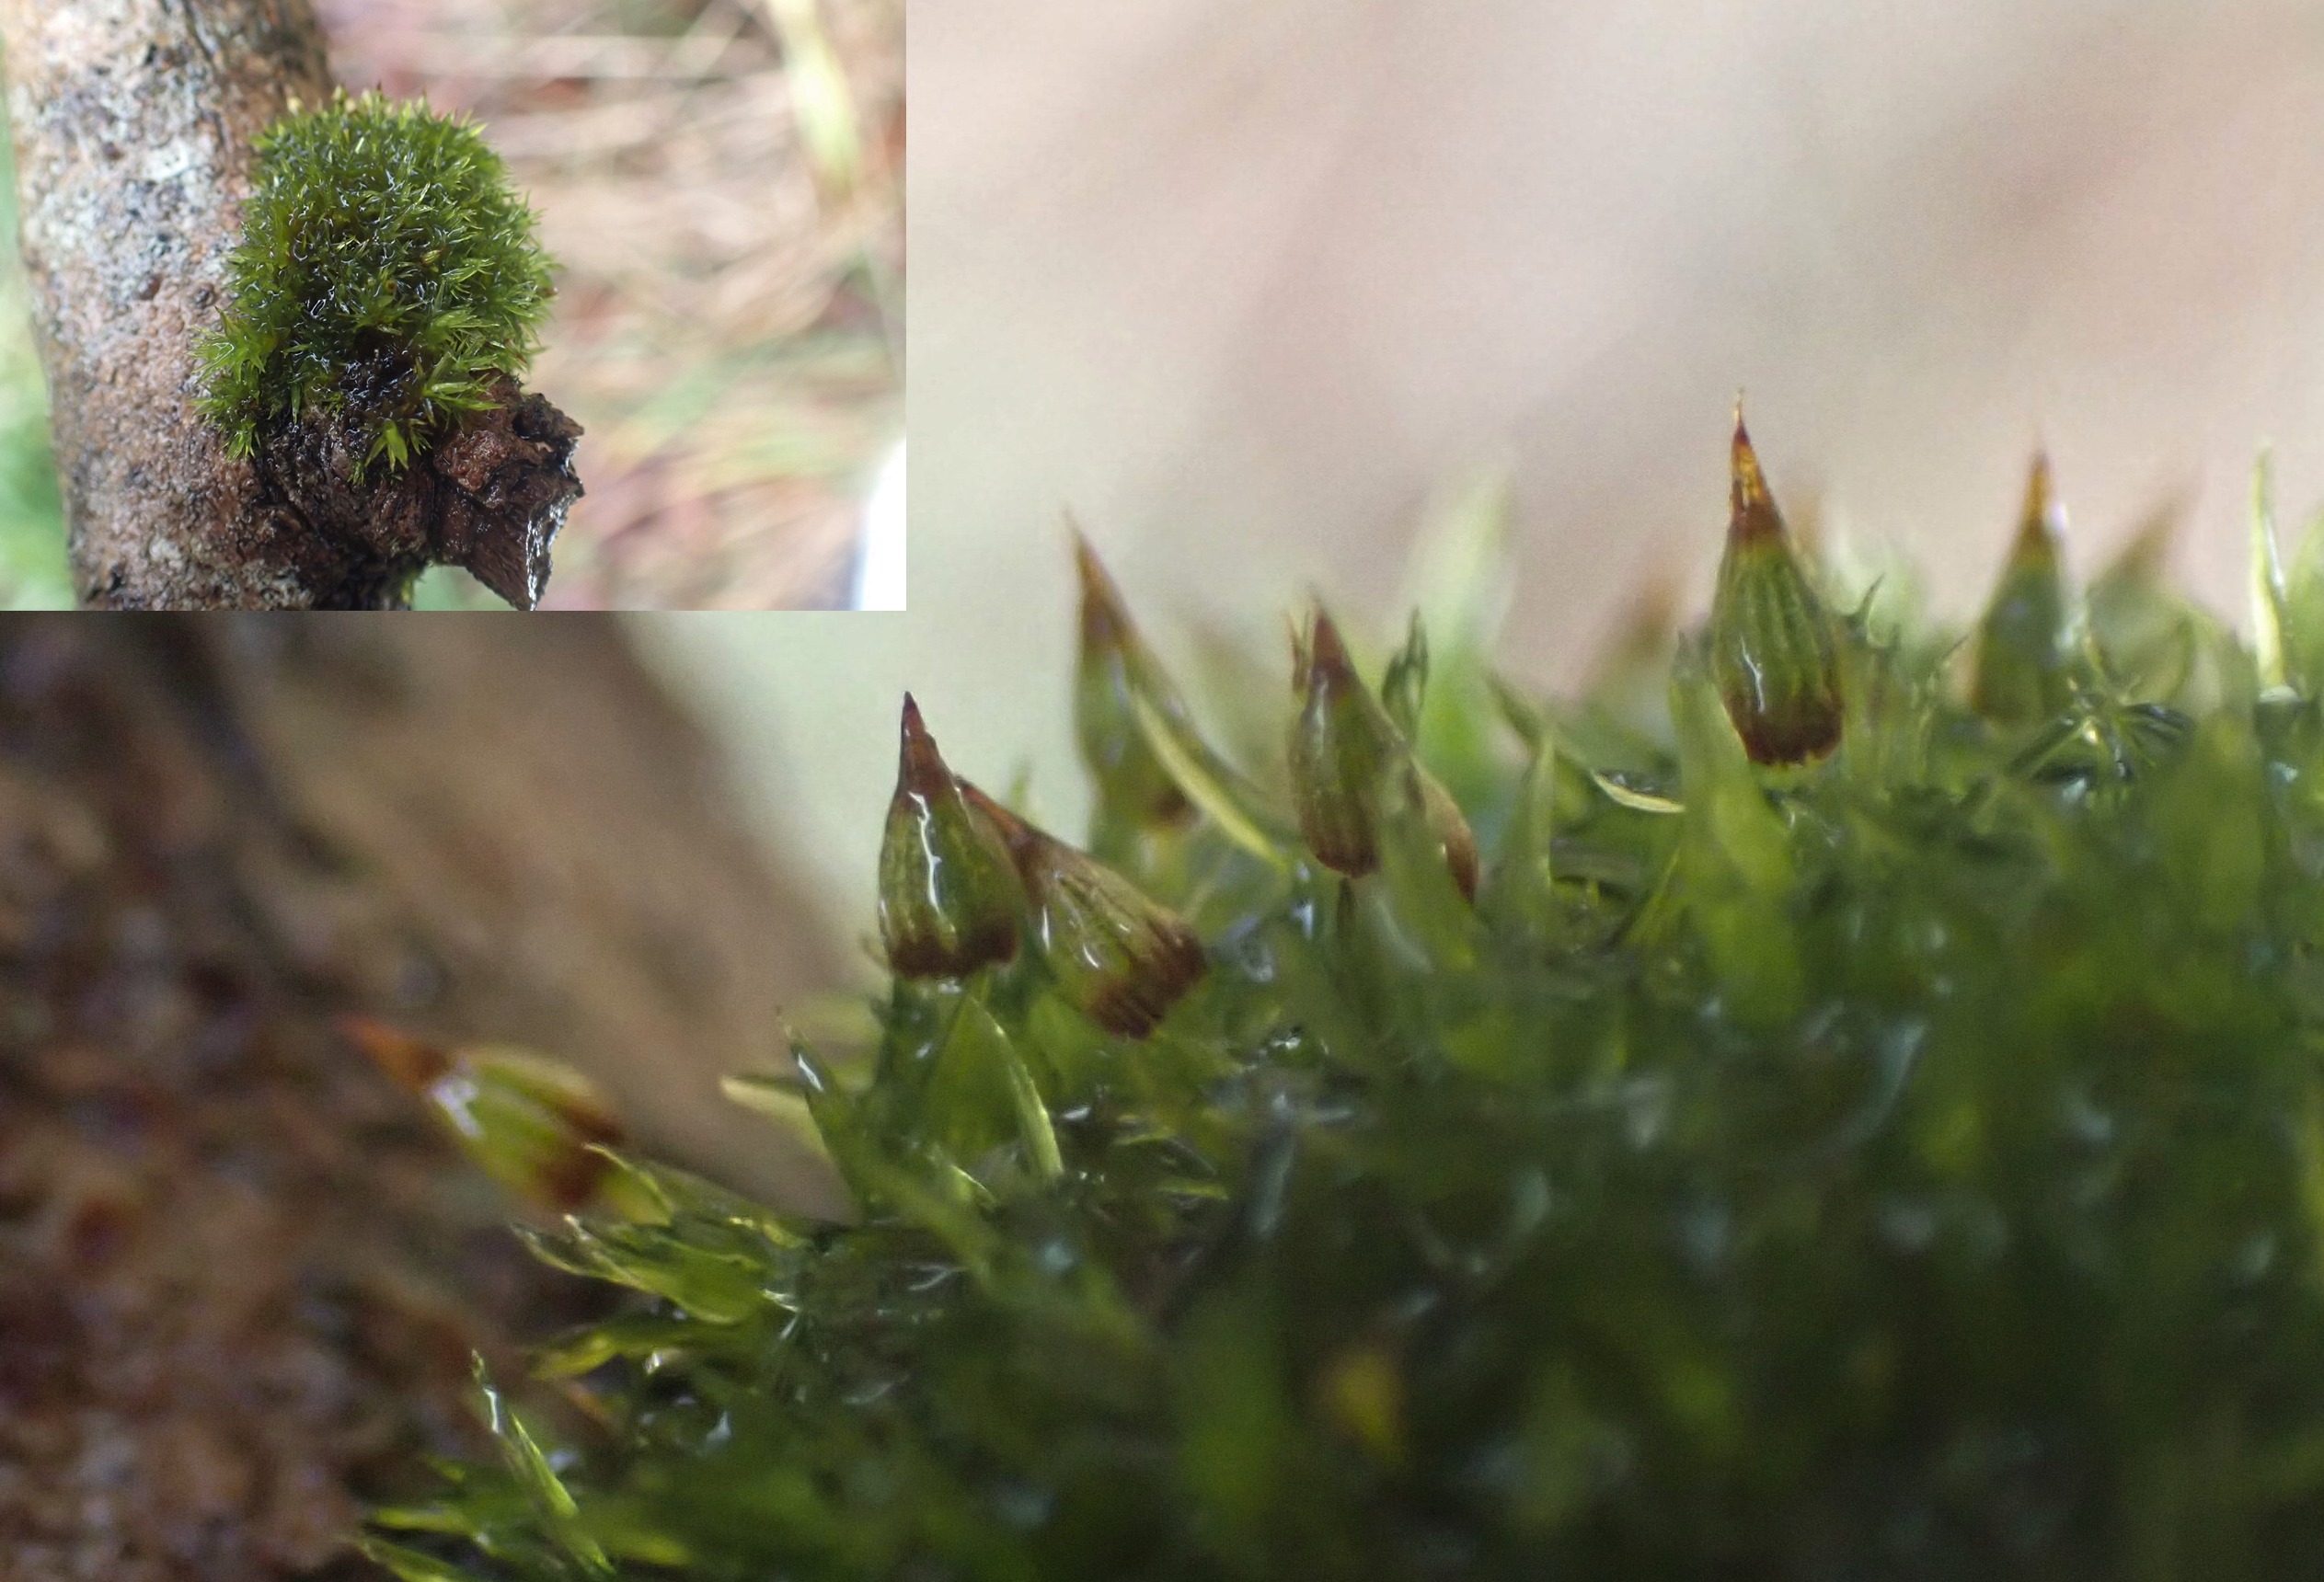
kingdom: Plantae
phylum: Bryophyta
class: Bryopsida
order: Orthotrichales
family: Orthotrichaceae
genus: Orthotrichum
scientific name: Orthotrichum pulchellum
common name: Smuk furehætte
